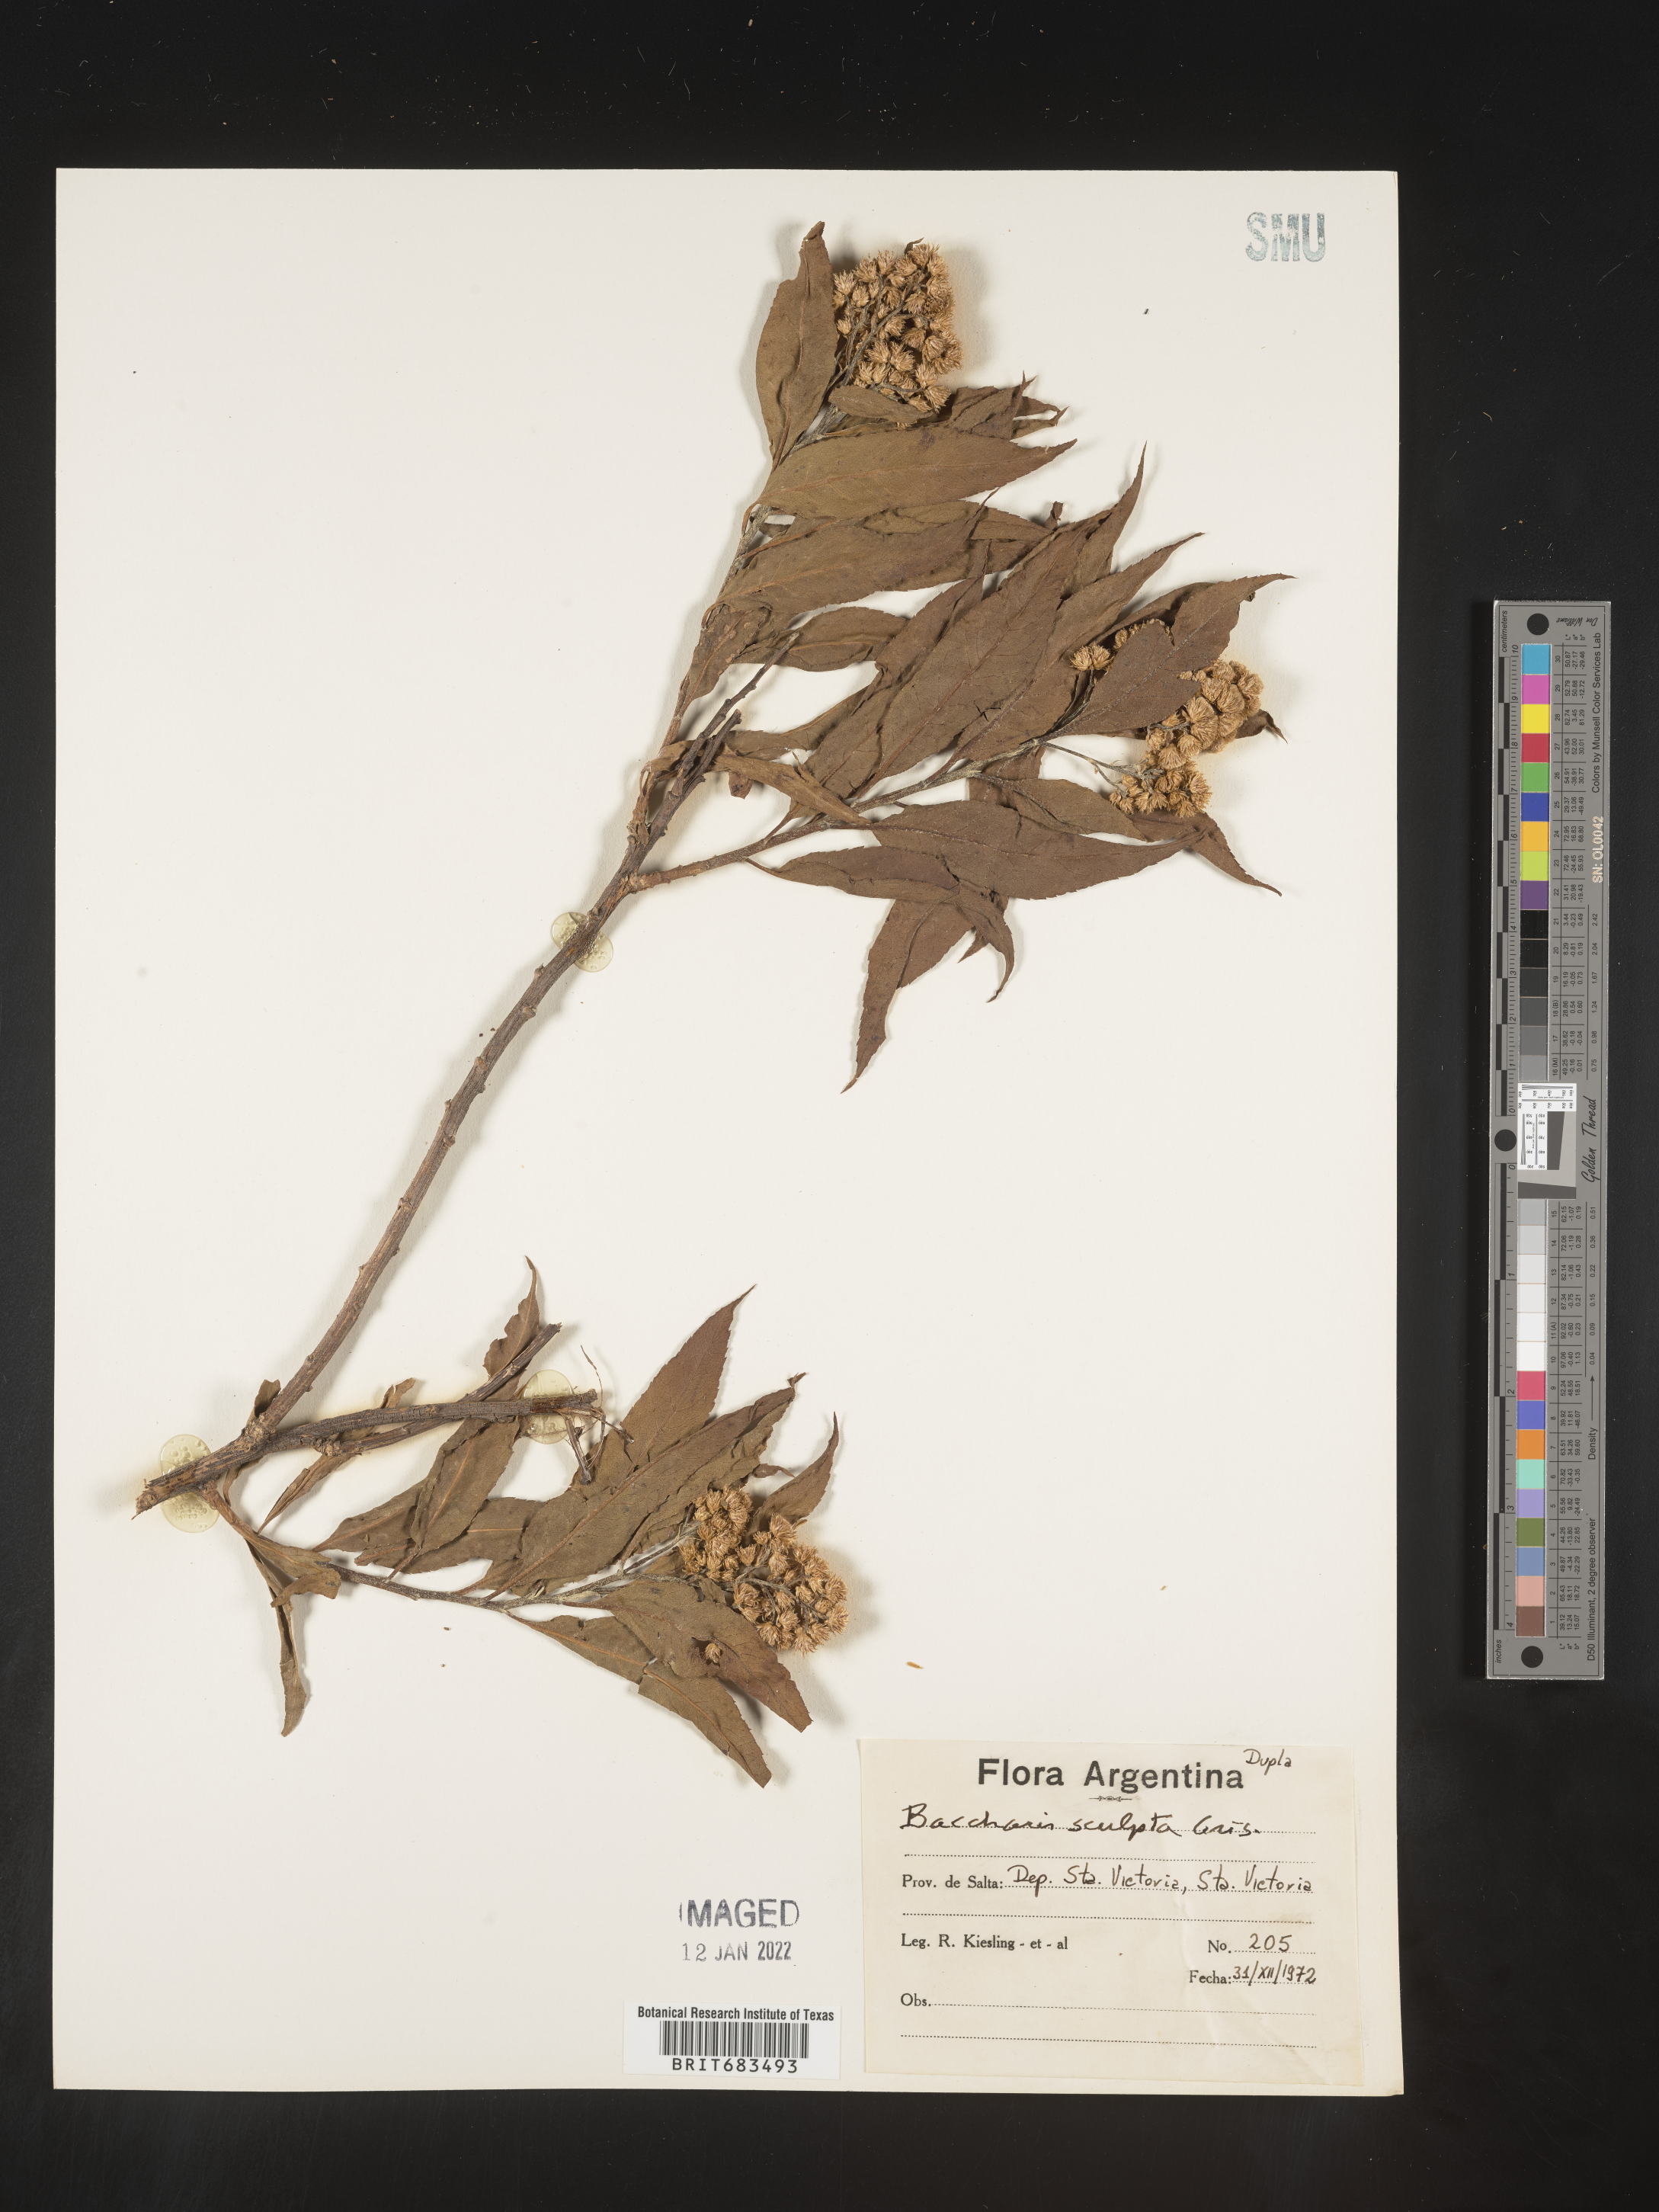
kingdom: Plantae
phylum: Tracheophyta
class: Magnoliopsida
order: Asterales
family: Asteraceae
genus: Baccharis
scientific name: Baccharis
